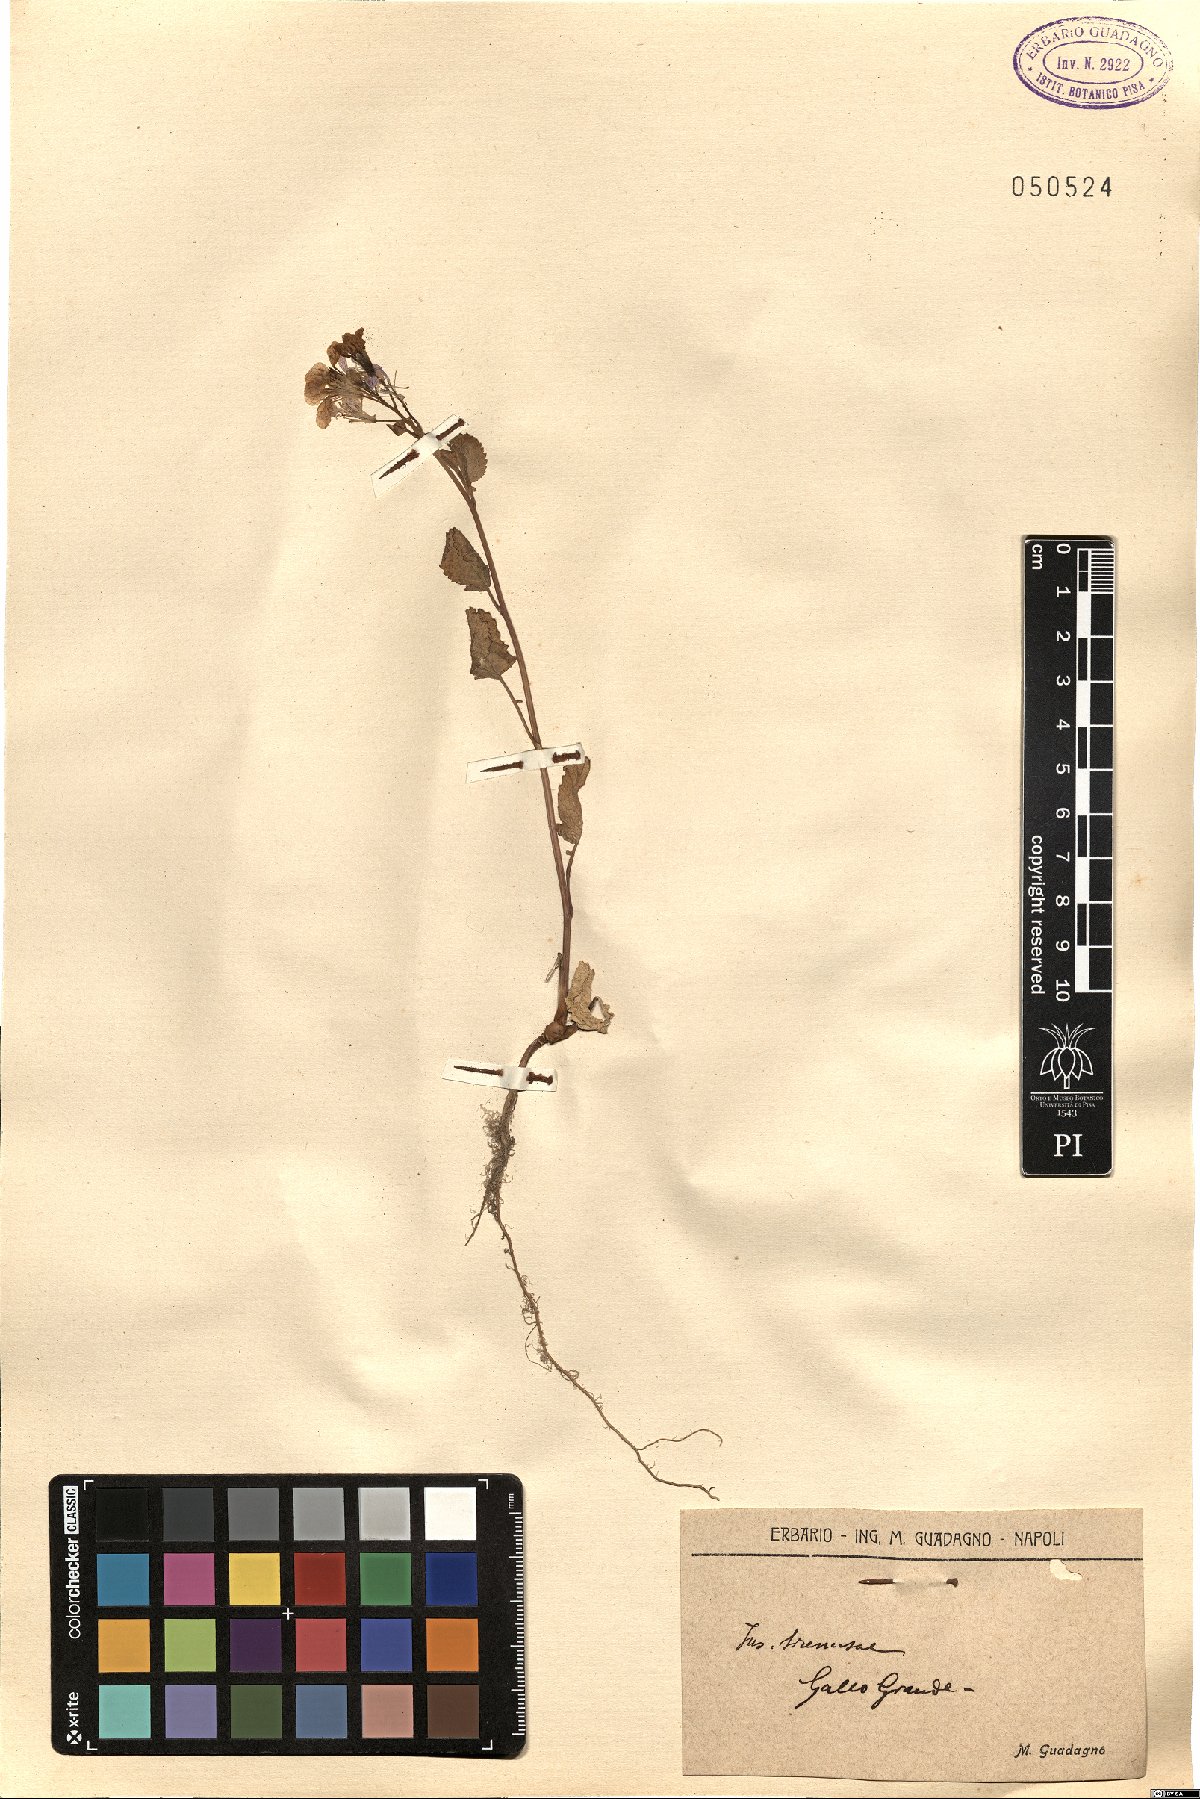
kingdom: Plantae
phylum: Tracheophyta
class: Magnoliopsida
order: Brassicales
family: Brassicaceae
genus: Raphanus
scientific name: Raphanus
